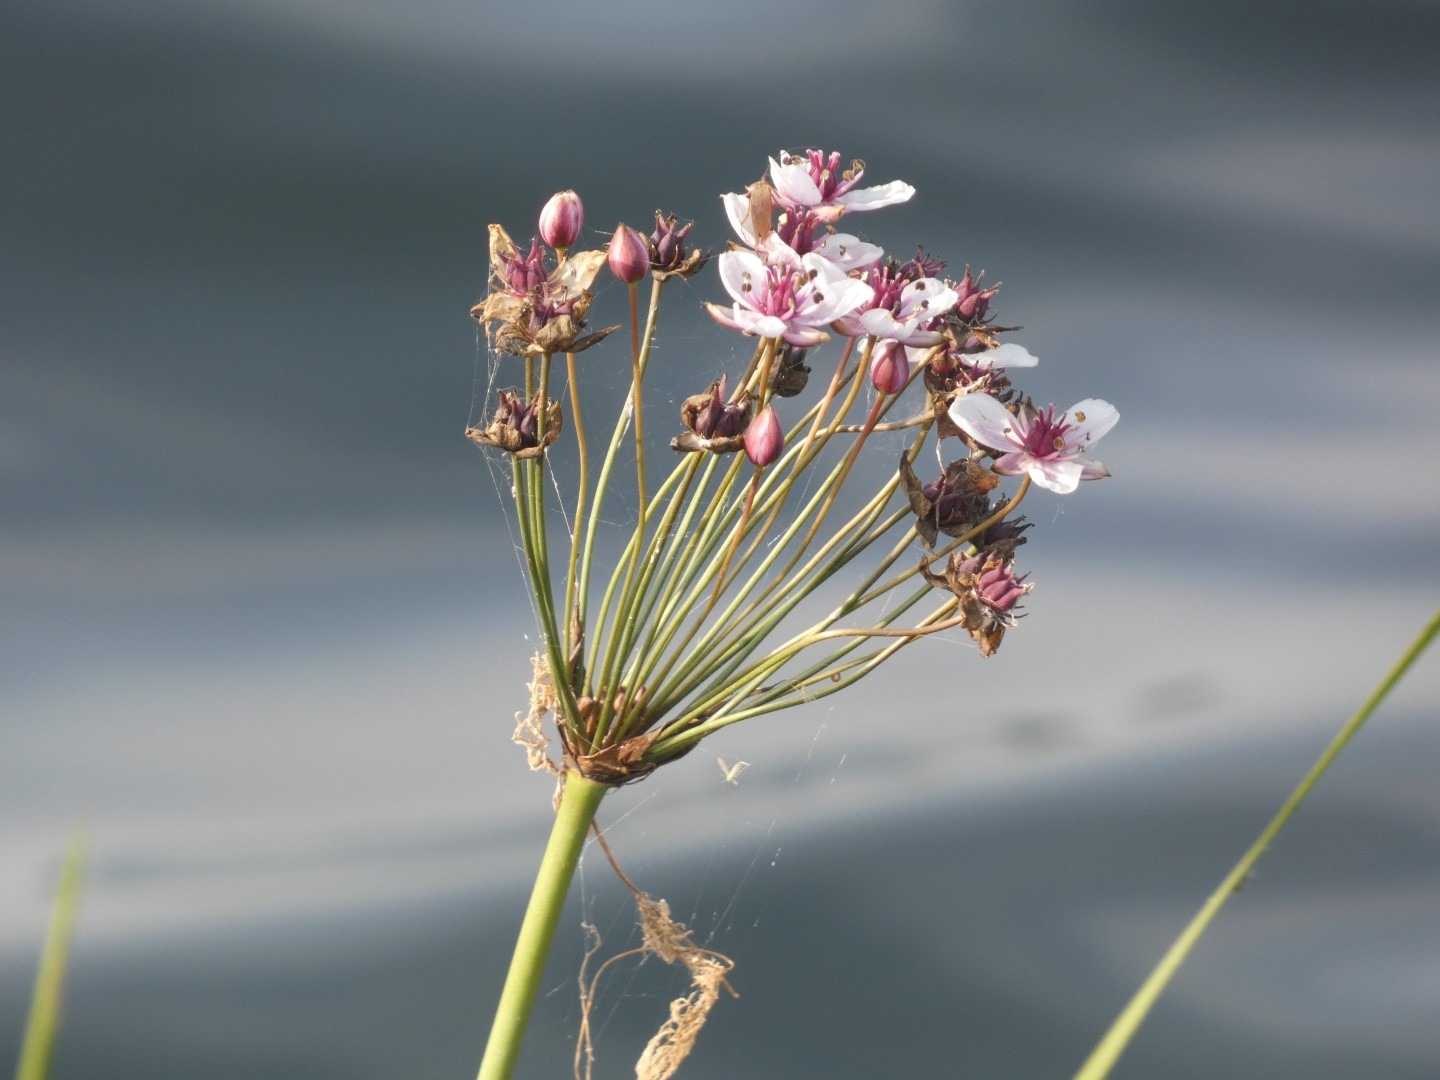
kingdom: Plantae
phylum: Tracheophyta
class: Liliopsida
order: Alismatales
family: Butomaceae
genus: Butomus
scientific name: Butomus umbellatus
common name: Brudelys
